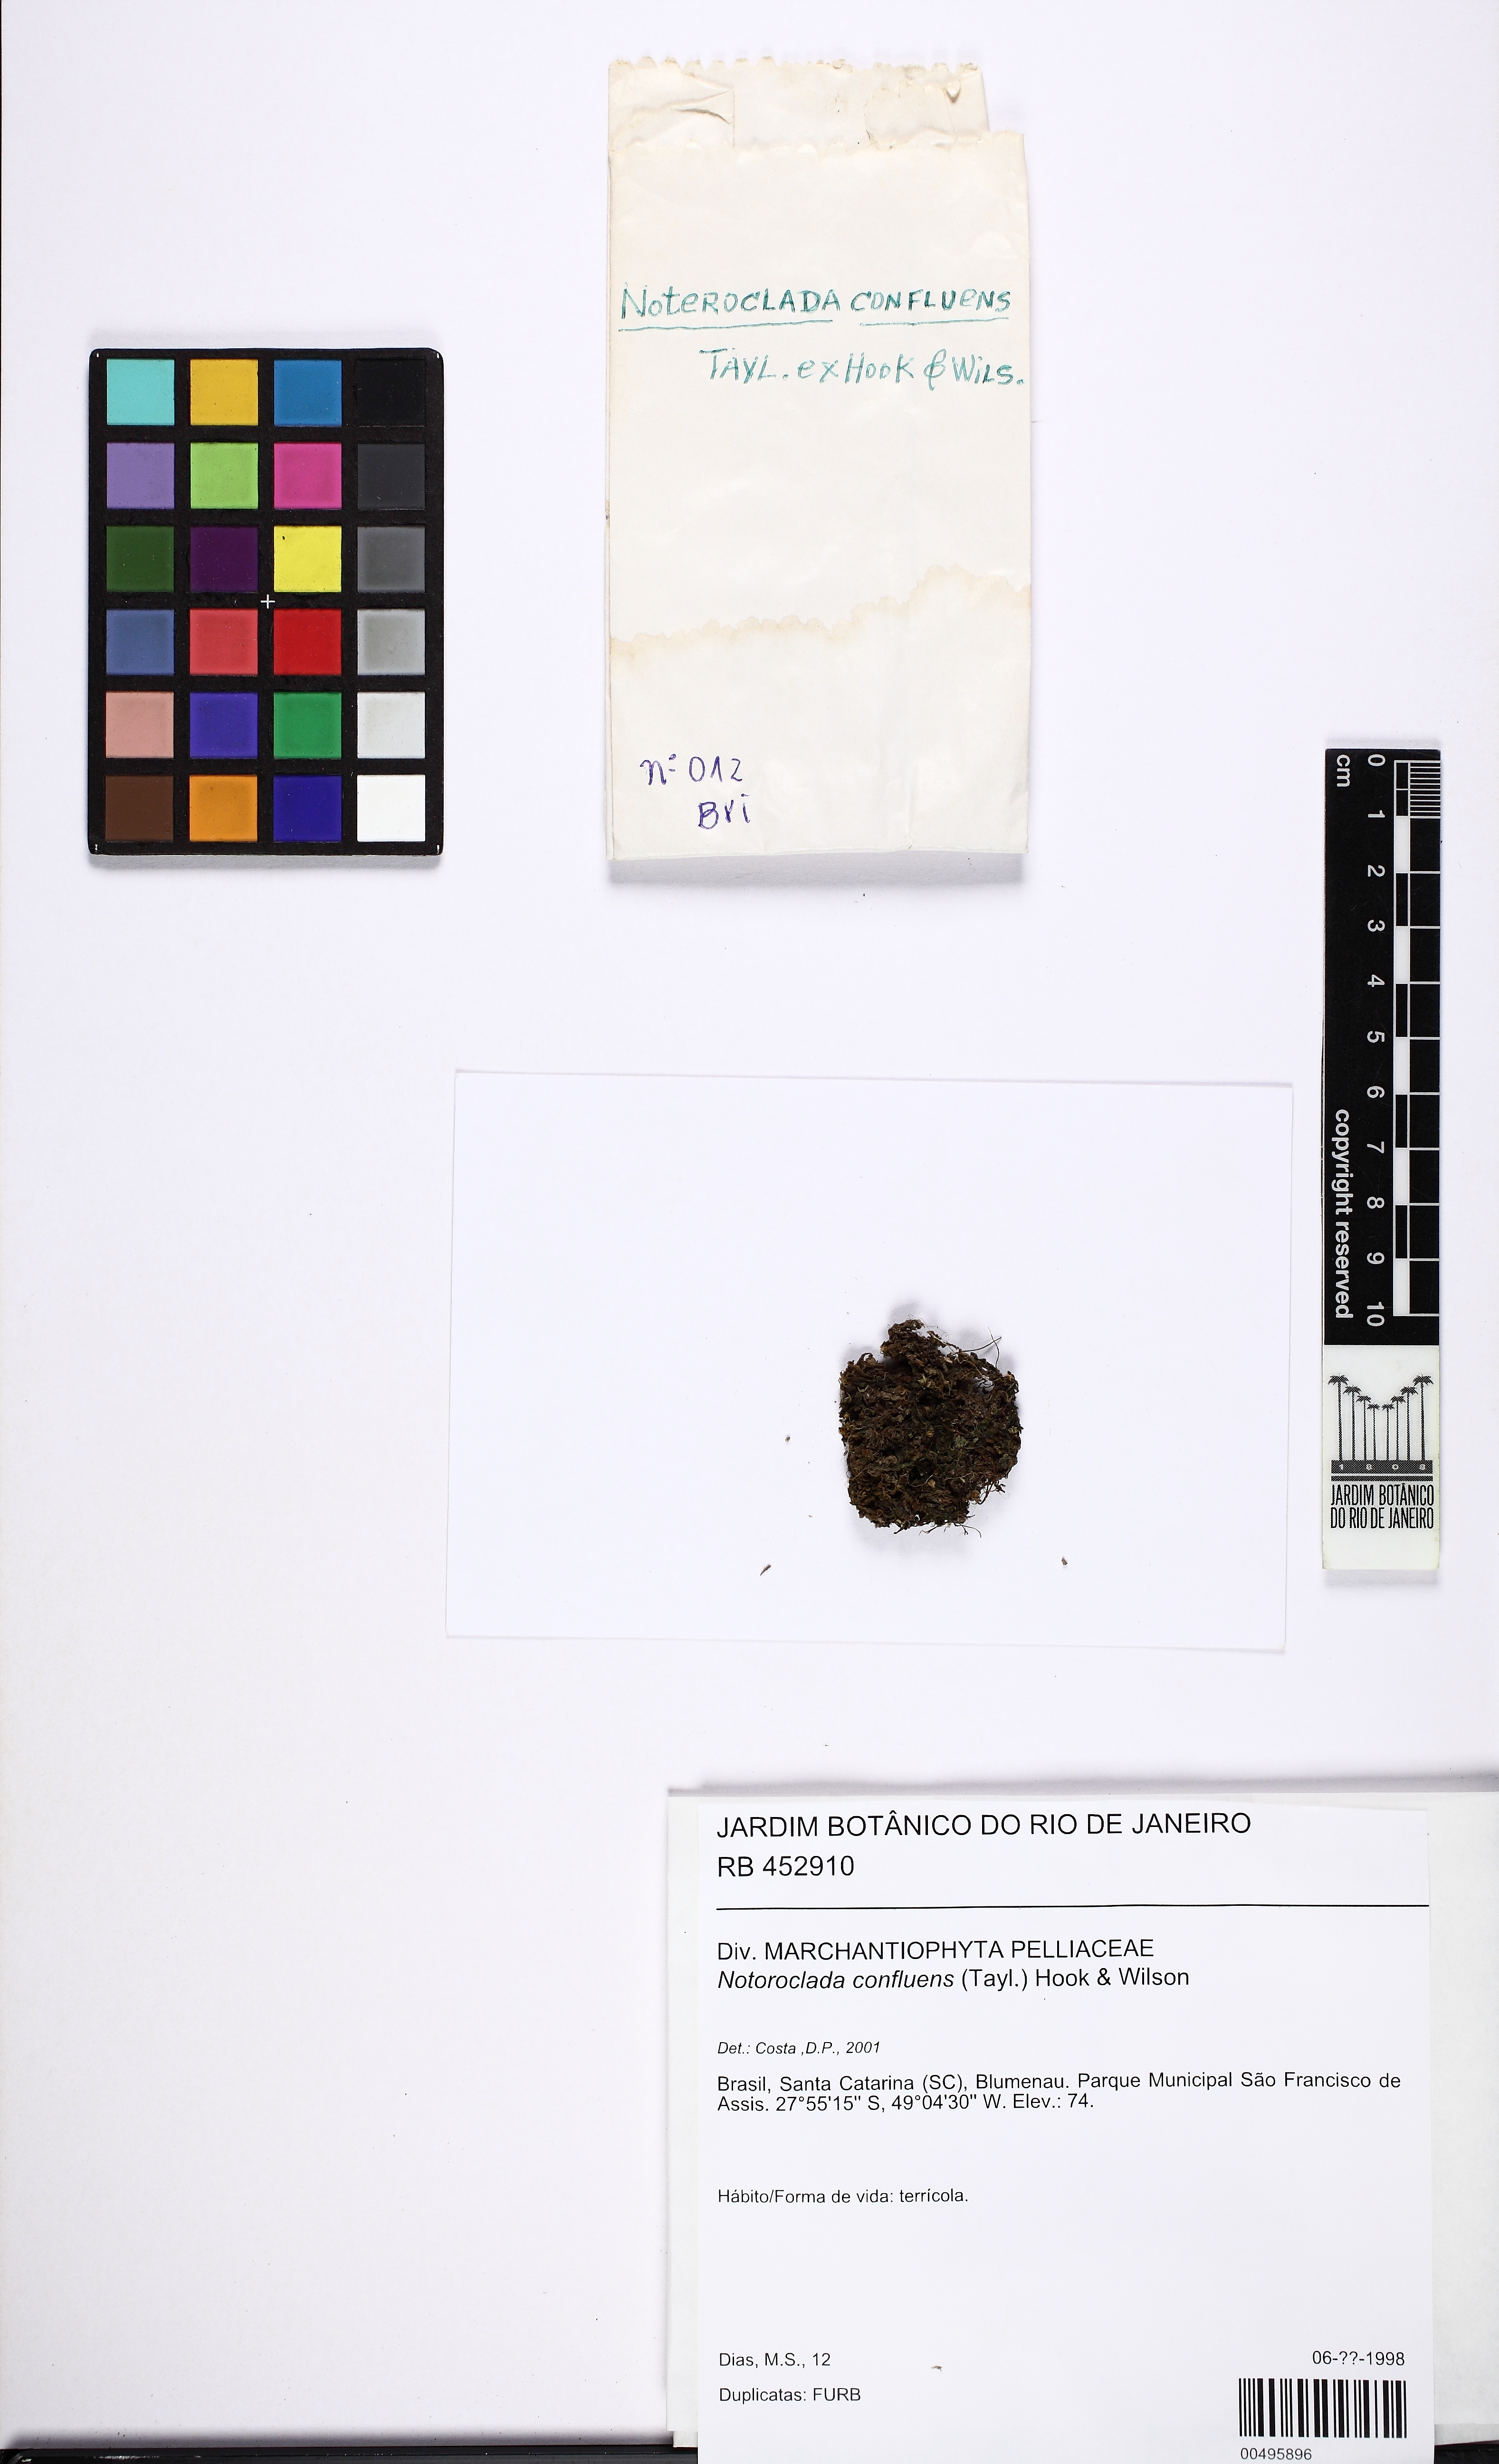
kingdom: Plantae
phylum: Marchantiophyta
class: Jungermanniopsida
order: Pelliales
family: Noterocladaceae
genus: Noteroclada
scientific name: Noteroclada confluens
